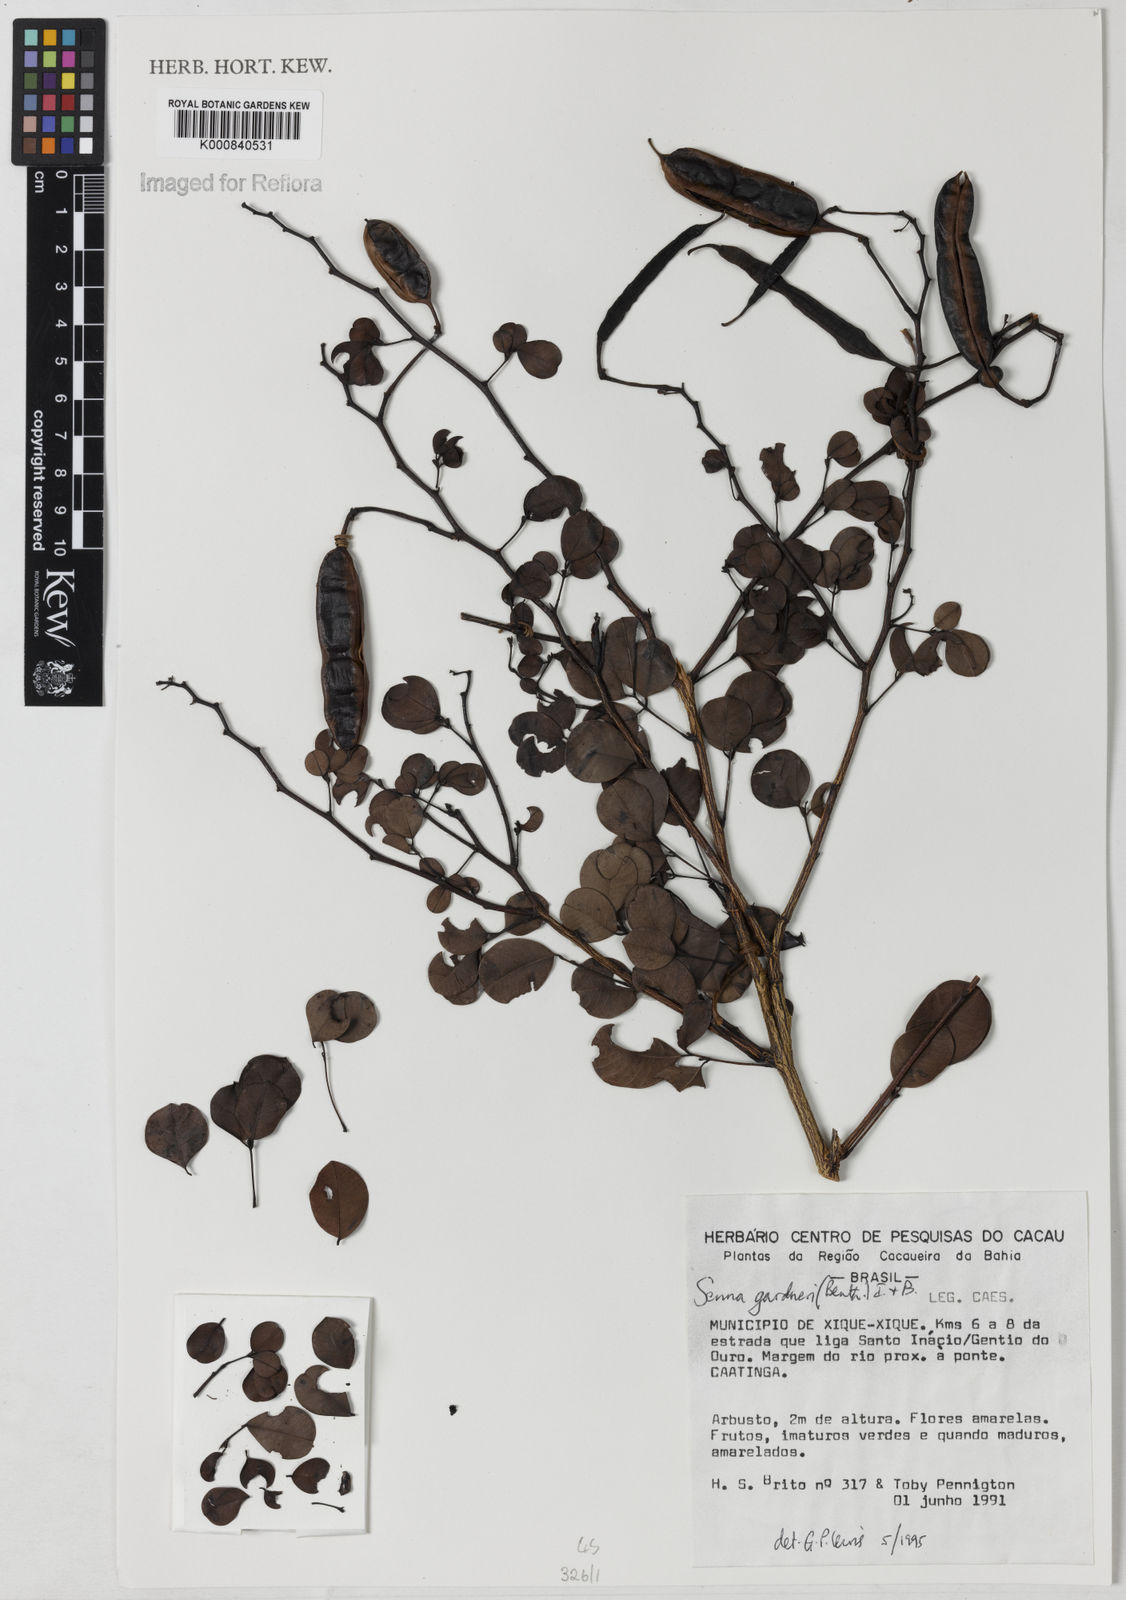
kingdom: Plantae
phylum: Tracheophyta
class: Magnoliopsida
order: Fabales
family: Fabaceae
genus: Senna
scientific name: Senna gardneri
